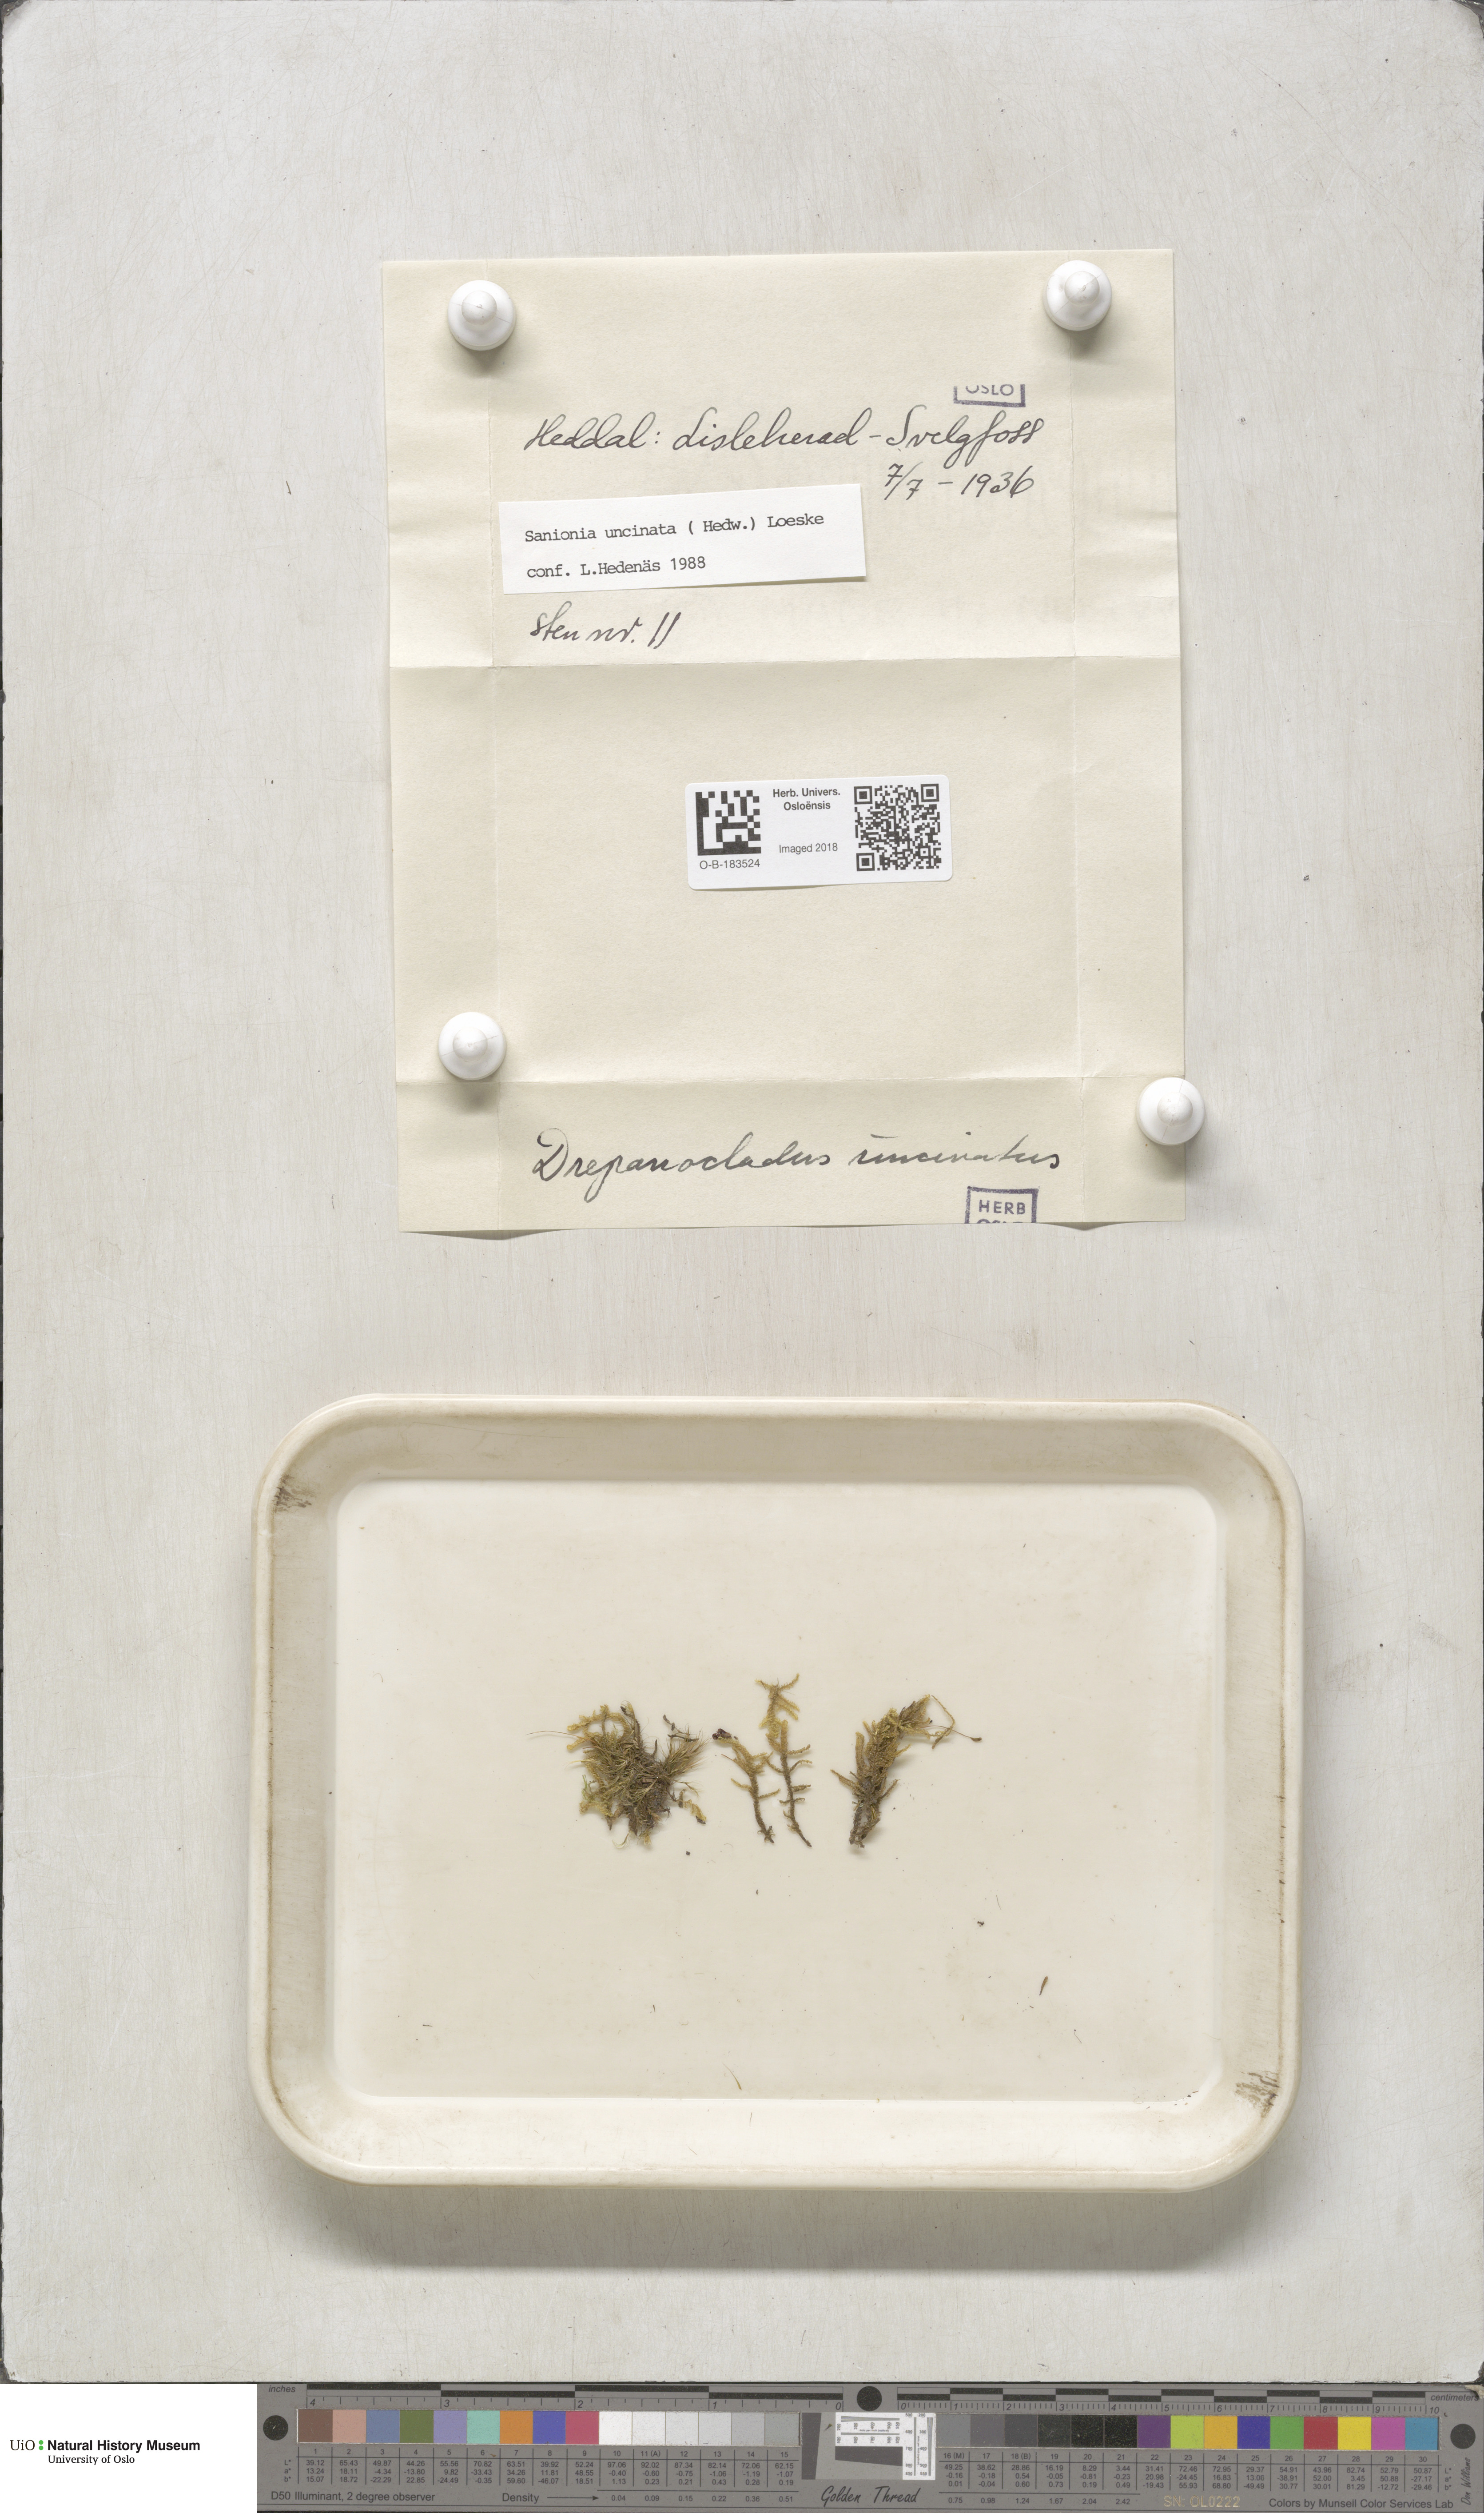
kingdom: Plantae
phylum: Bryophyta
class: Bryopsida
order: Hypnales
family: Scorpidiaceae
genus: Sanionia
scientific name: Sanionia uncinata
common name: Sickle moss
